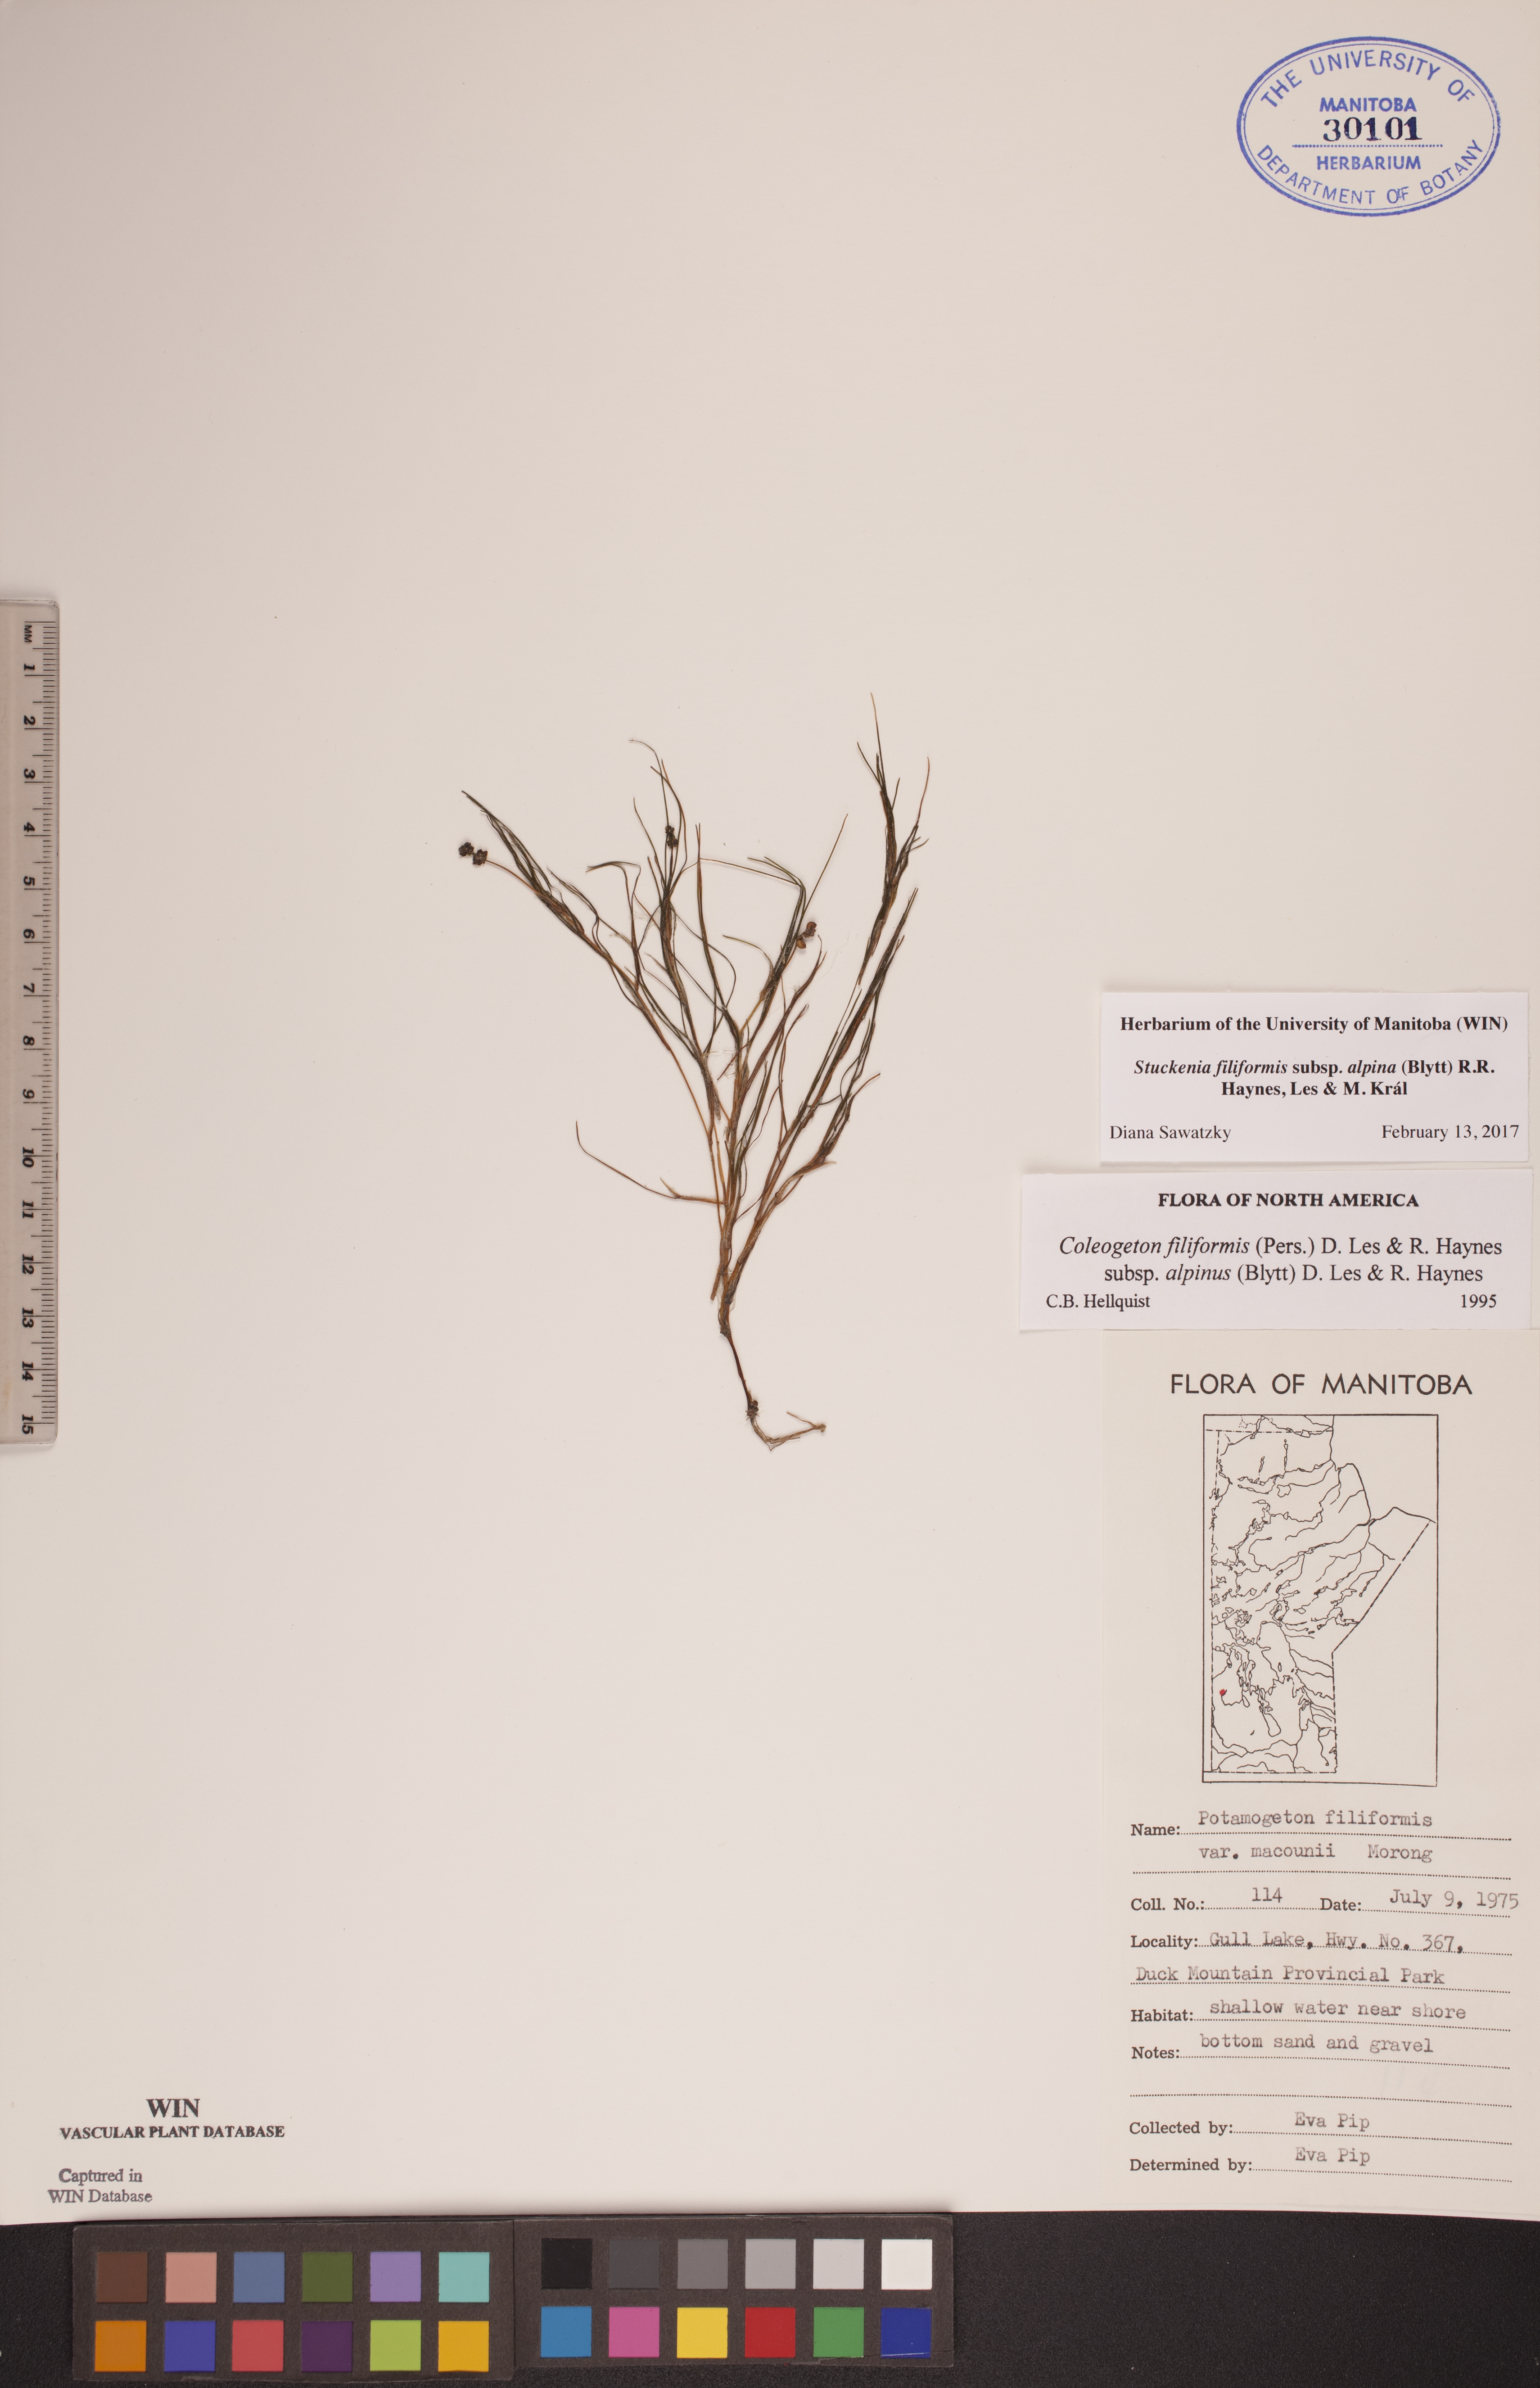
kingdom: Plantae
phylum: Tracheophyta
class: Liliopsida
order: Alismatales
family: Potamogetonaceae
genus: Stuckenia
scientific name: Stuckenia filiformis
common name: Alpine thread-leaved pondweed
